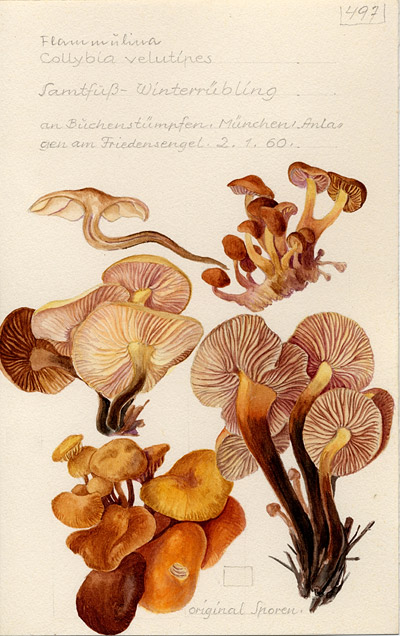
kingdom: Fungi
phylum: Basidiomycota
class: Agaricomycetes
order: Agaricales
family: Physalacriaceae
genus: Flammulina
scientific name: Flammulina velutipes
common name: Velvet shank
